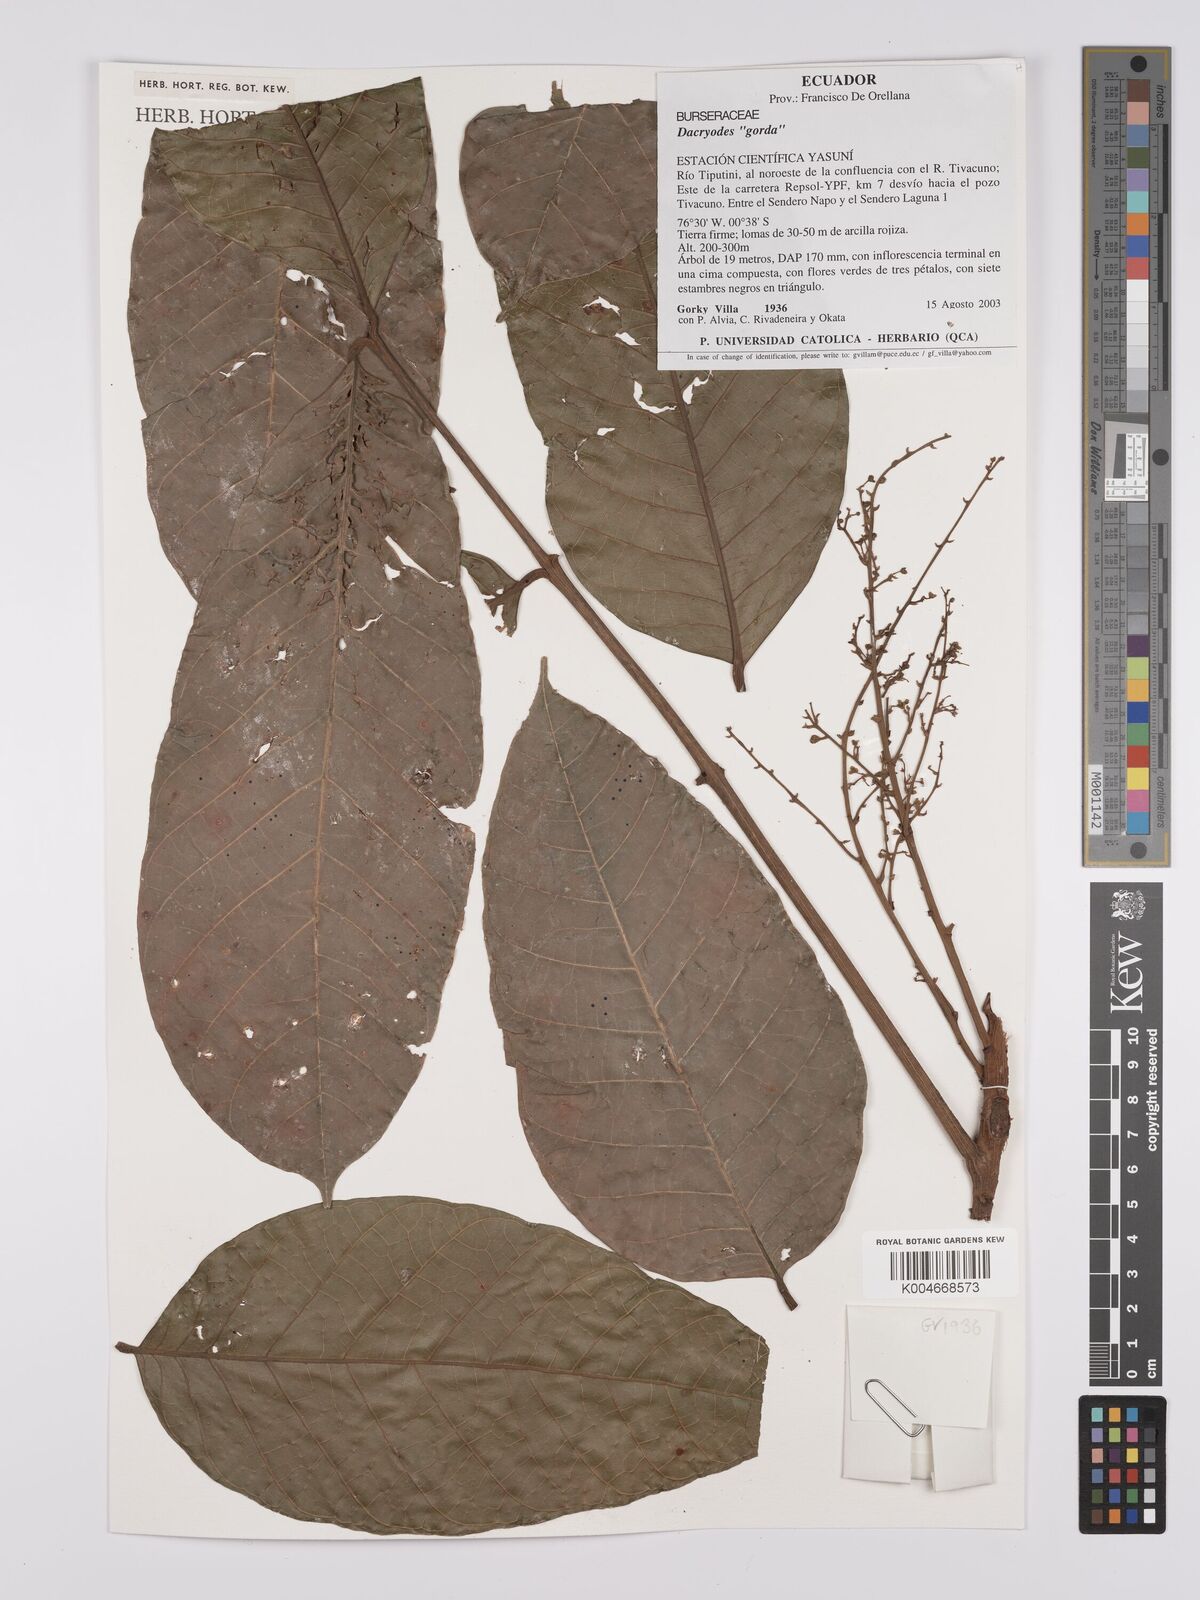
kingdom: Plantae
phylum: Tracheophyta
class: Magnoliopsida
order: Sapindales
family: Burseraceae
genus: Dacryodes
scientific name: Dacryodes
